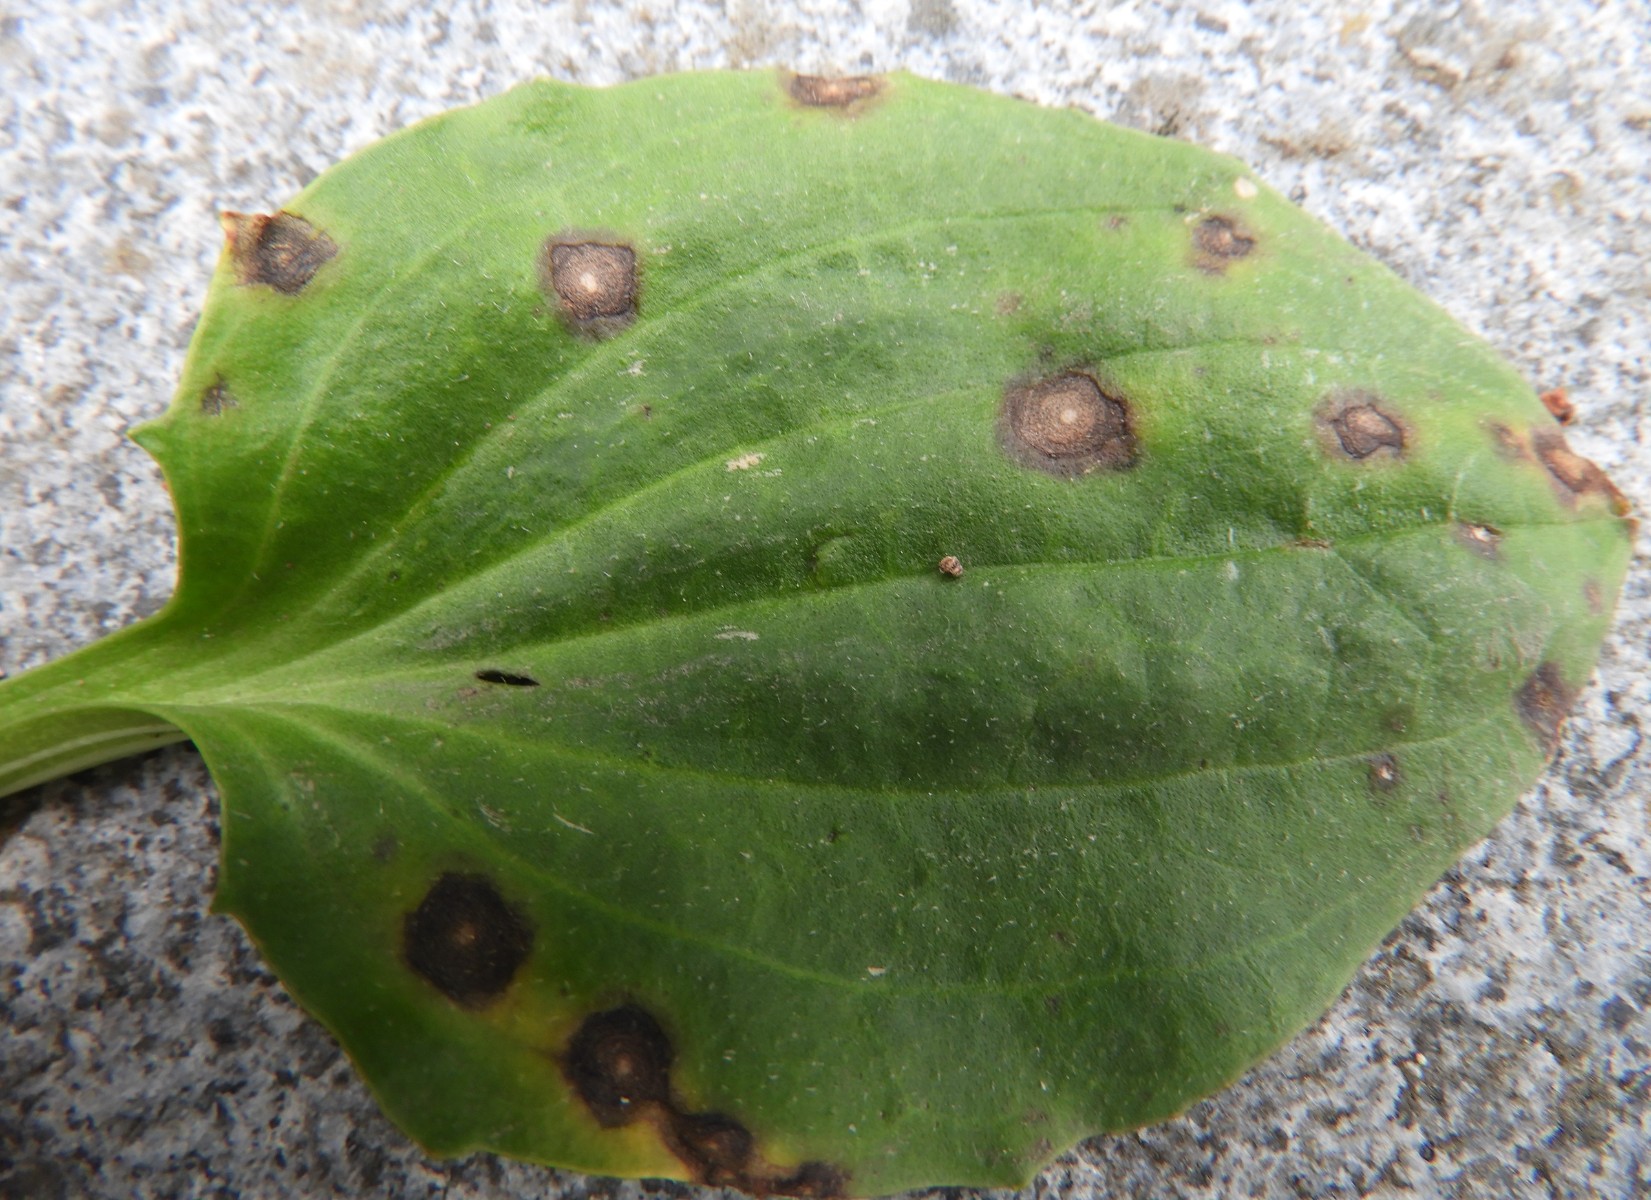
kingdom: Fungi
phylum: Ascomycota
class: Dothideomycetes
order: Mycosphaerellales
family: Mycosphaerellaceae
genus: Ramularia
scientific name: Ramularia rhabdospora
